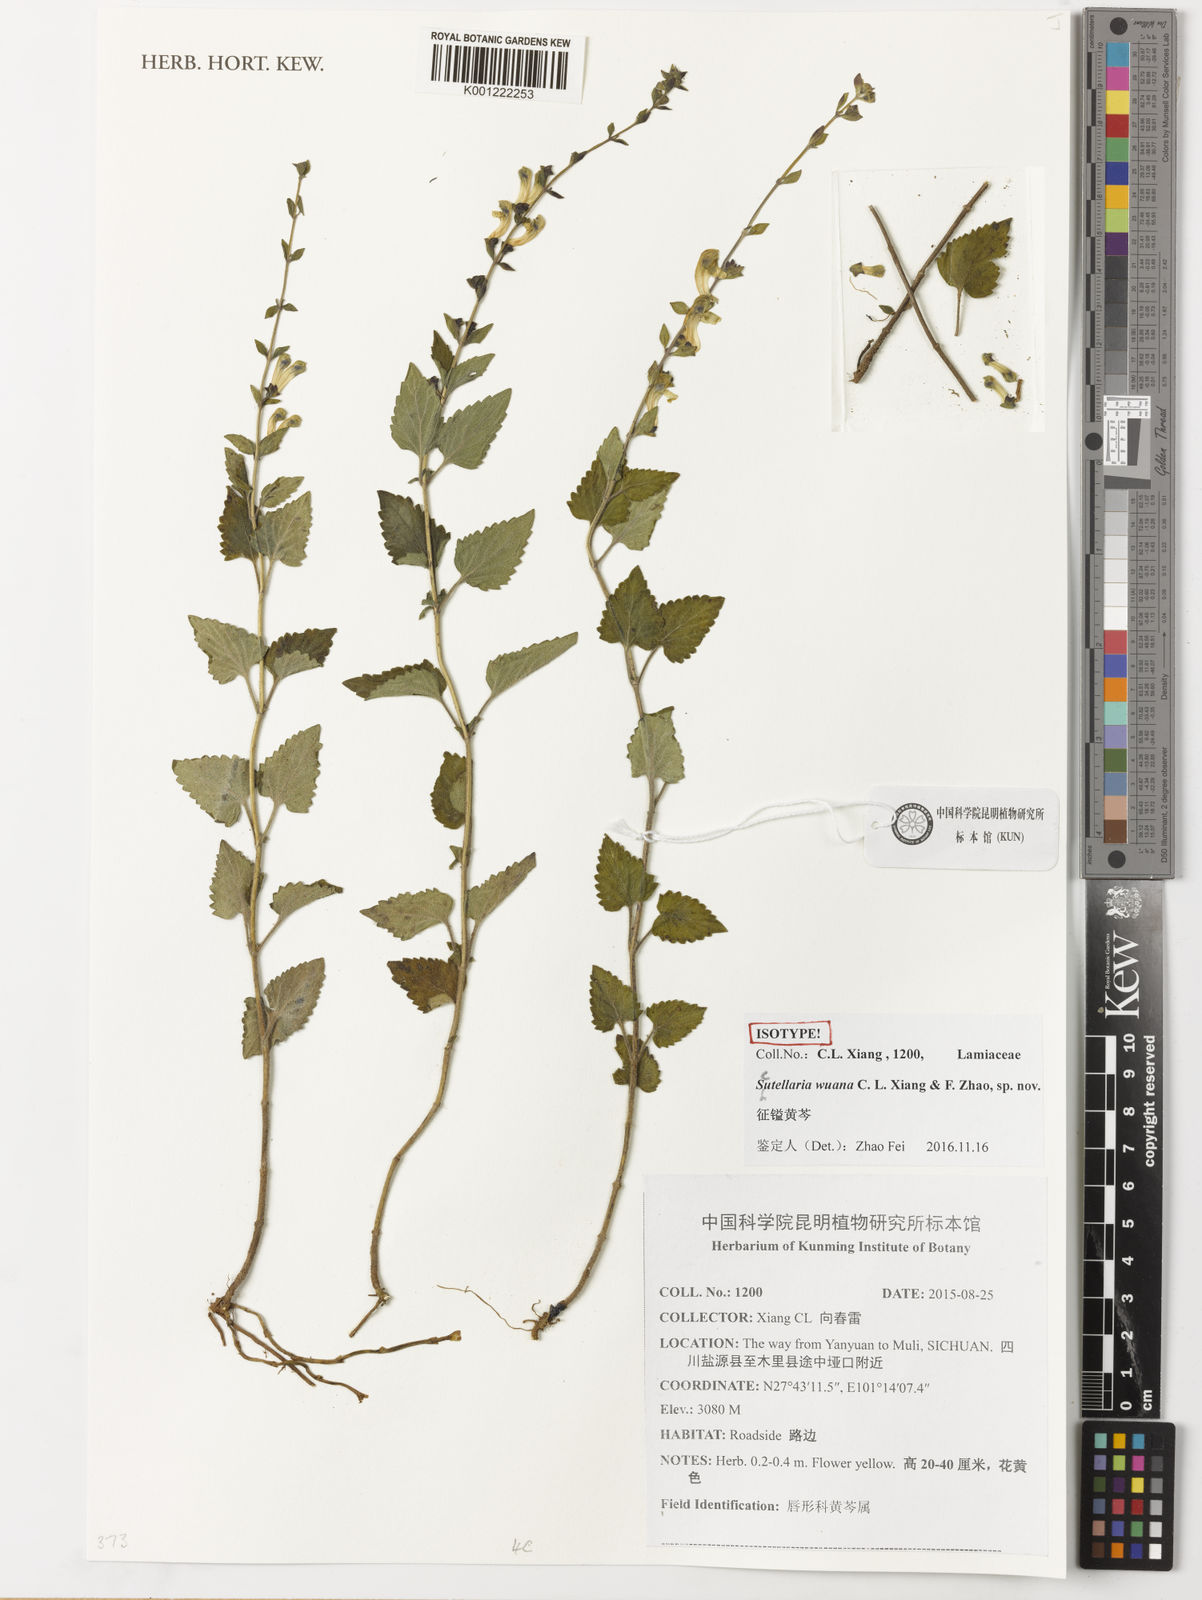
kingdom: Plantae
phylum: Tracheophyta
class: Magnoliopsida
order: Lamiales
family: Lamiaceae
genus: Scutellaria
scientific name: Scutellaria wuana
